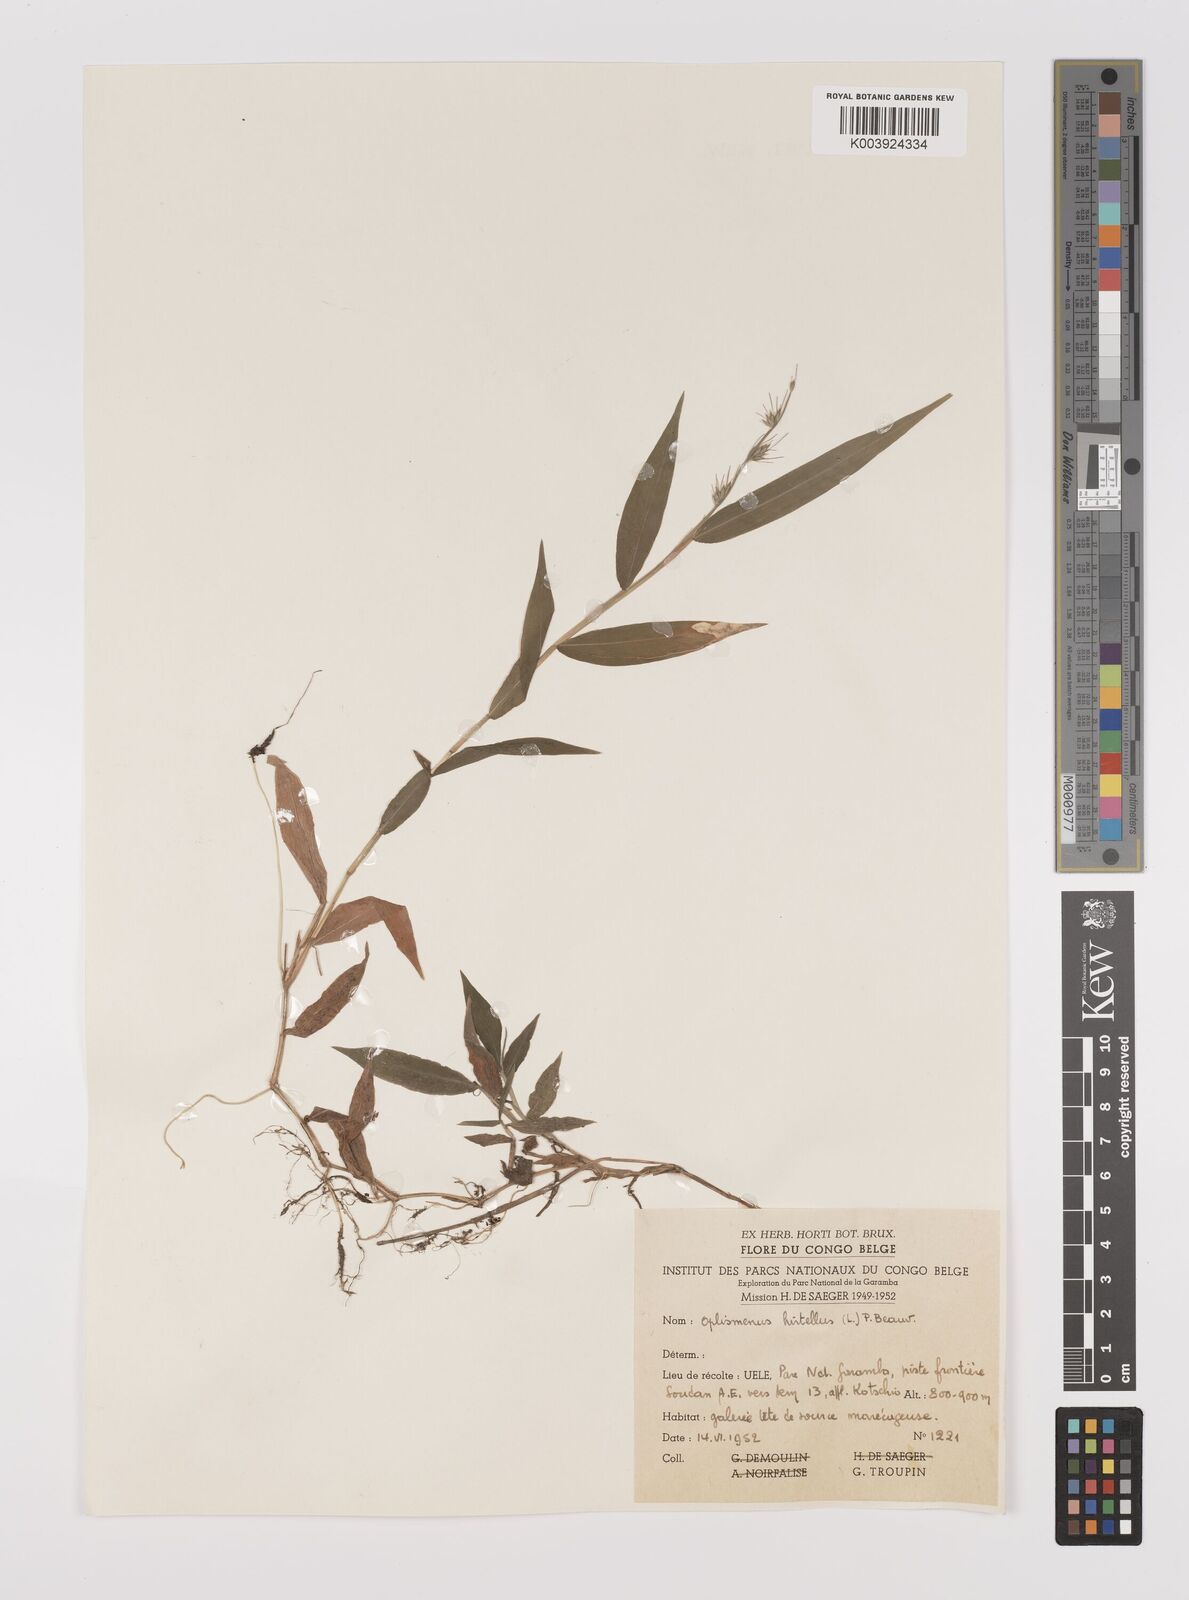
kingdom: Plantae
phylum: Tracheophyta
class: Liliopsida
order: Poales
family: Poaceae
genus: Oplismenus
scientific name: Oplismenus hirtellus
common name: Basketgrass
